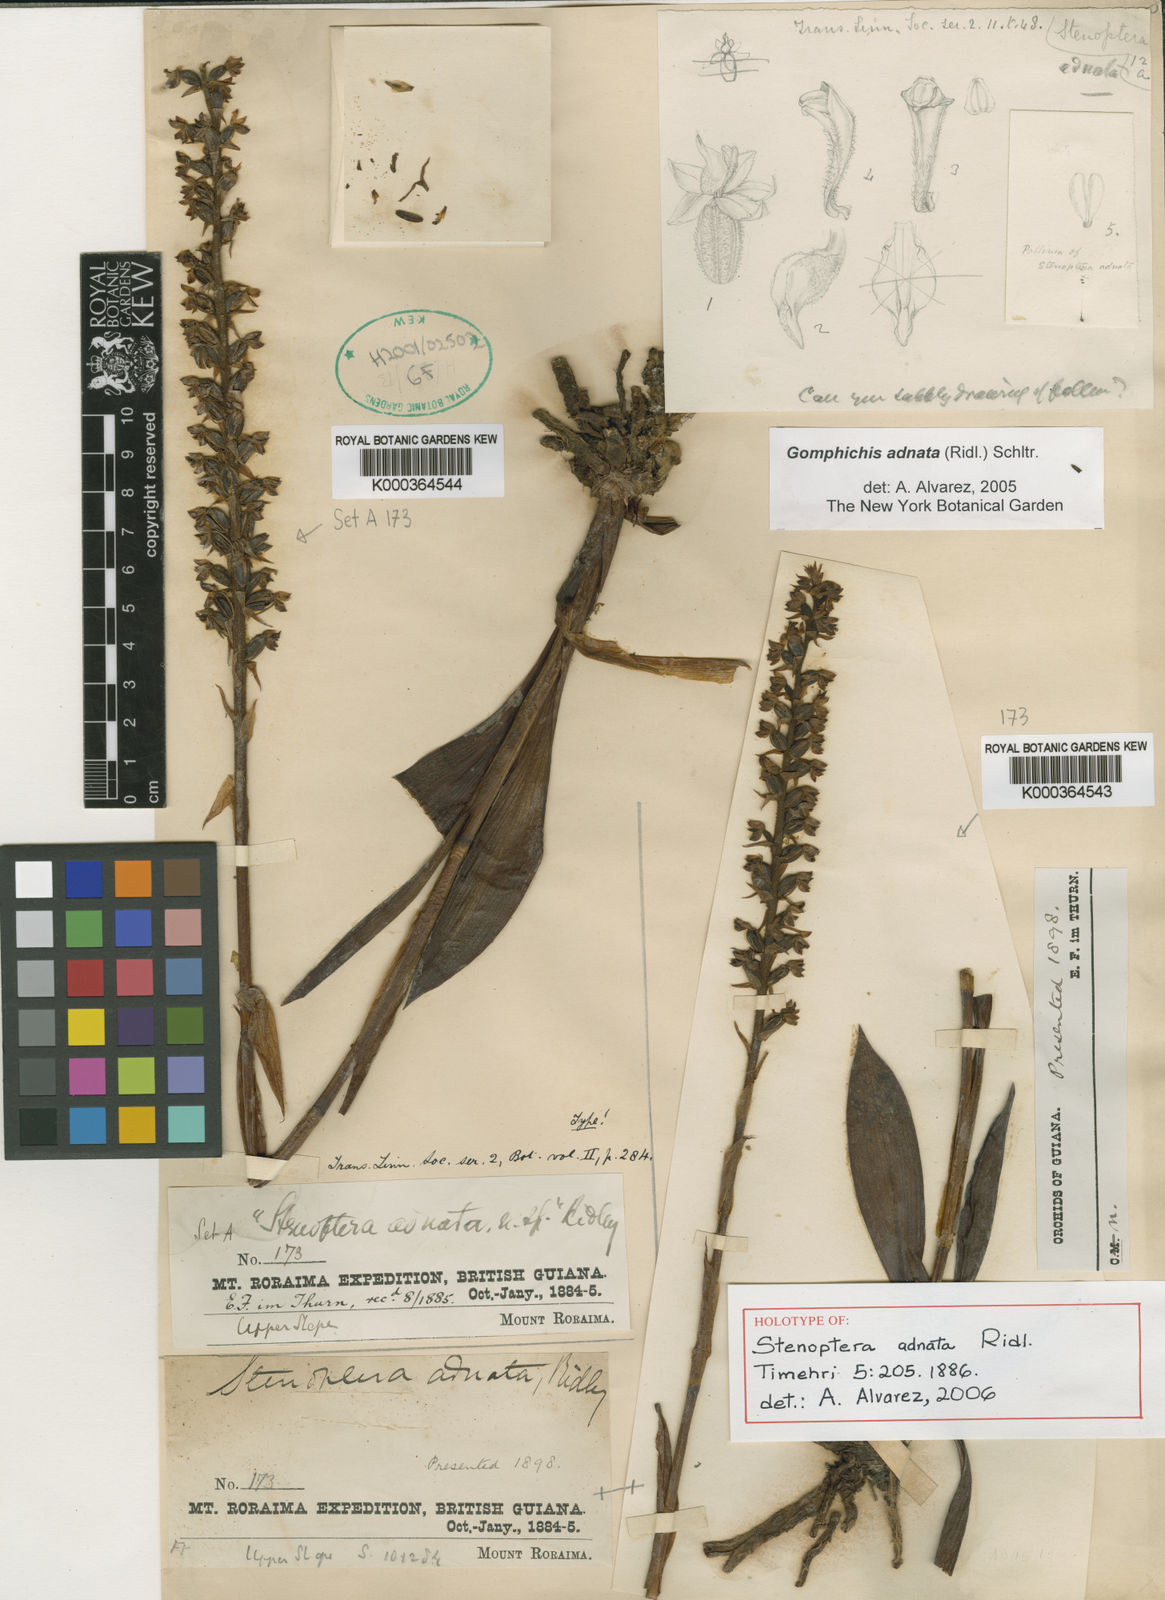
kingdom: Plantae
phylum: Tracheophyta
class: Liliopsida
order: Asparagales
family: Orchidaceae
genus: Gomphichis
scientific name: Gomphichis adnata
